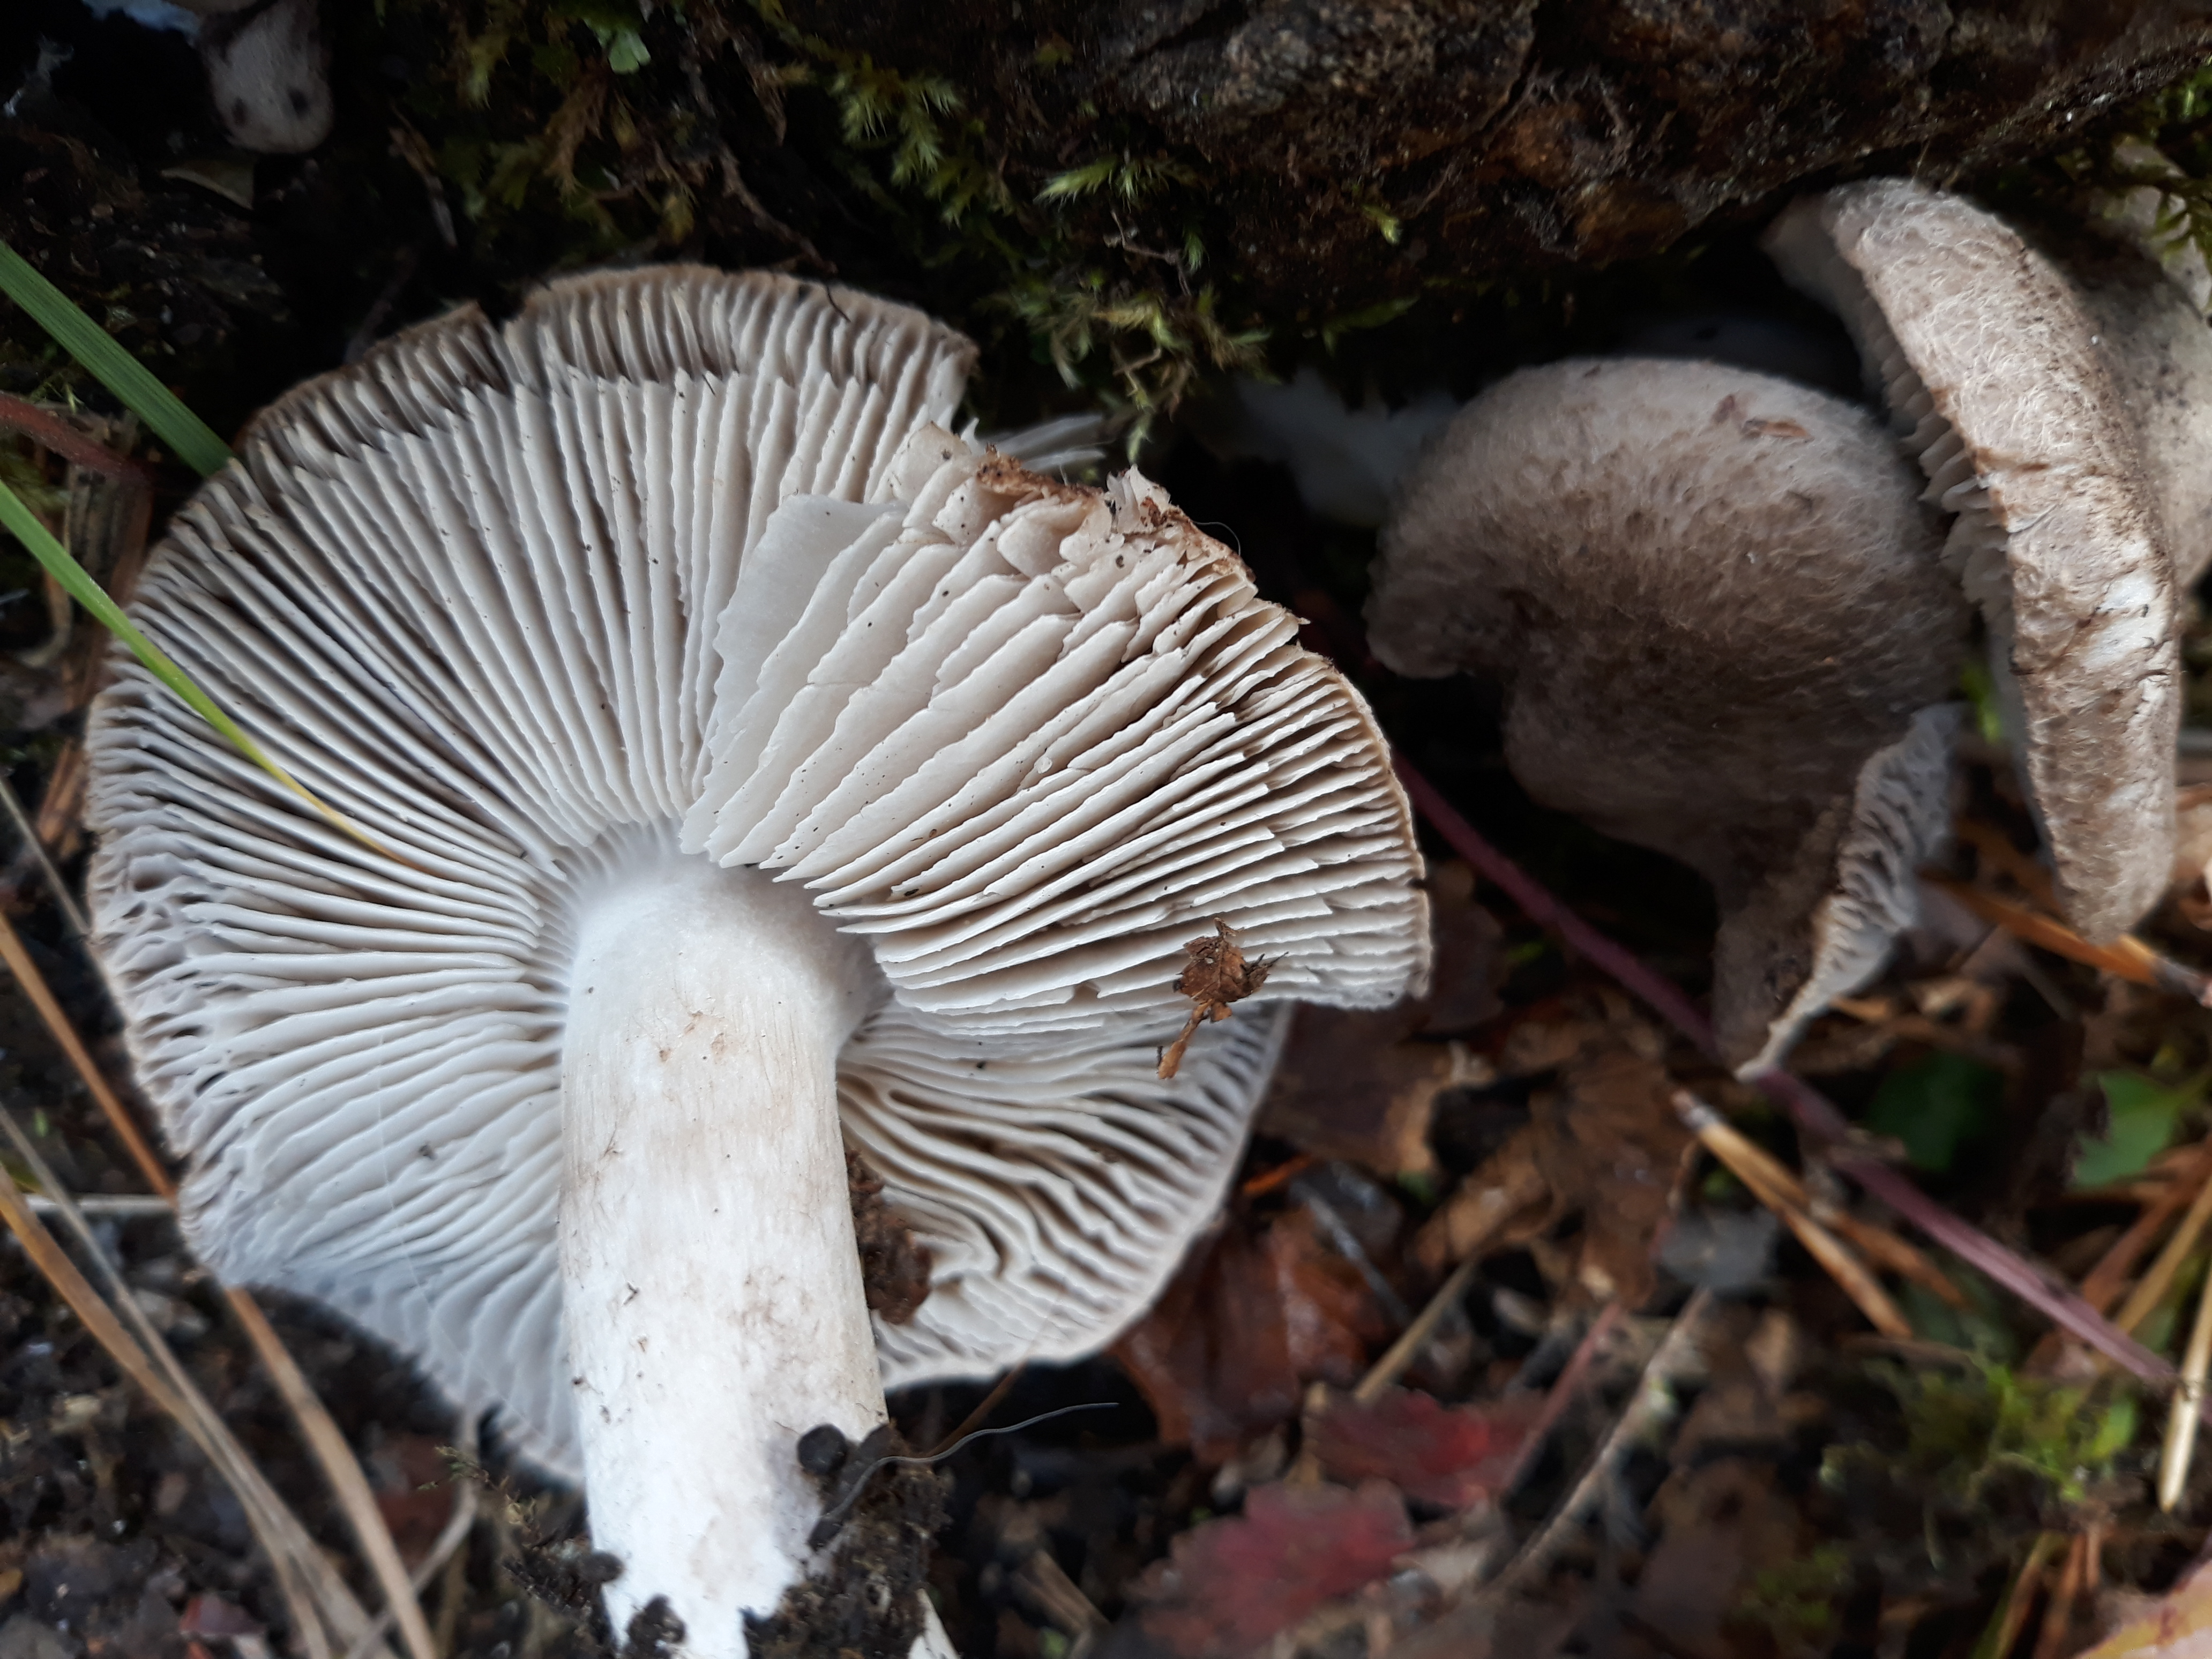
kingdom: Fungi
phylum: Basidiomycota
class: Agaricomycetes
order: Agaricales
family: Tricholomataceae
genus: Tricholoma
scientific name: Tricholoma terreum
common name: Grey knight
